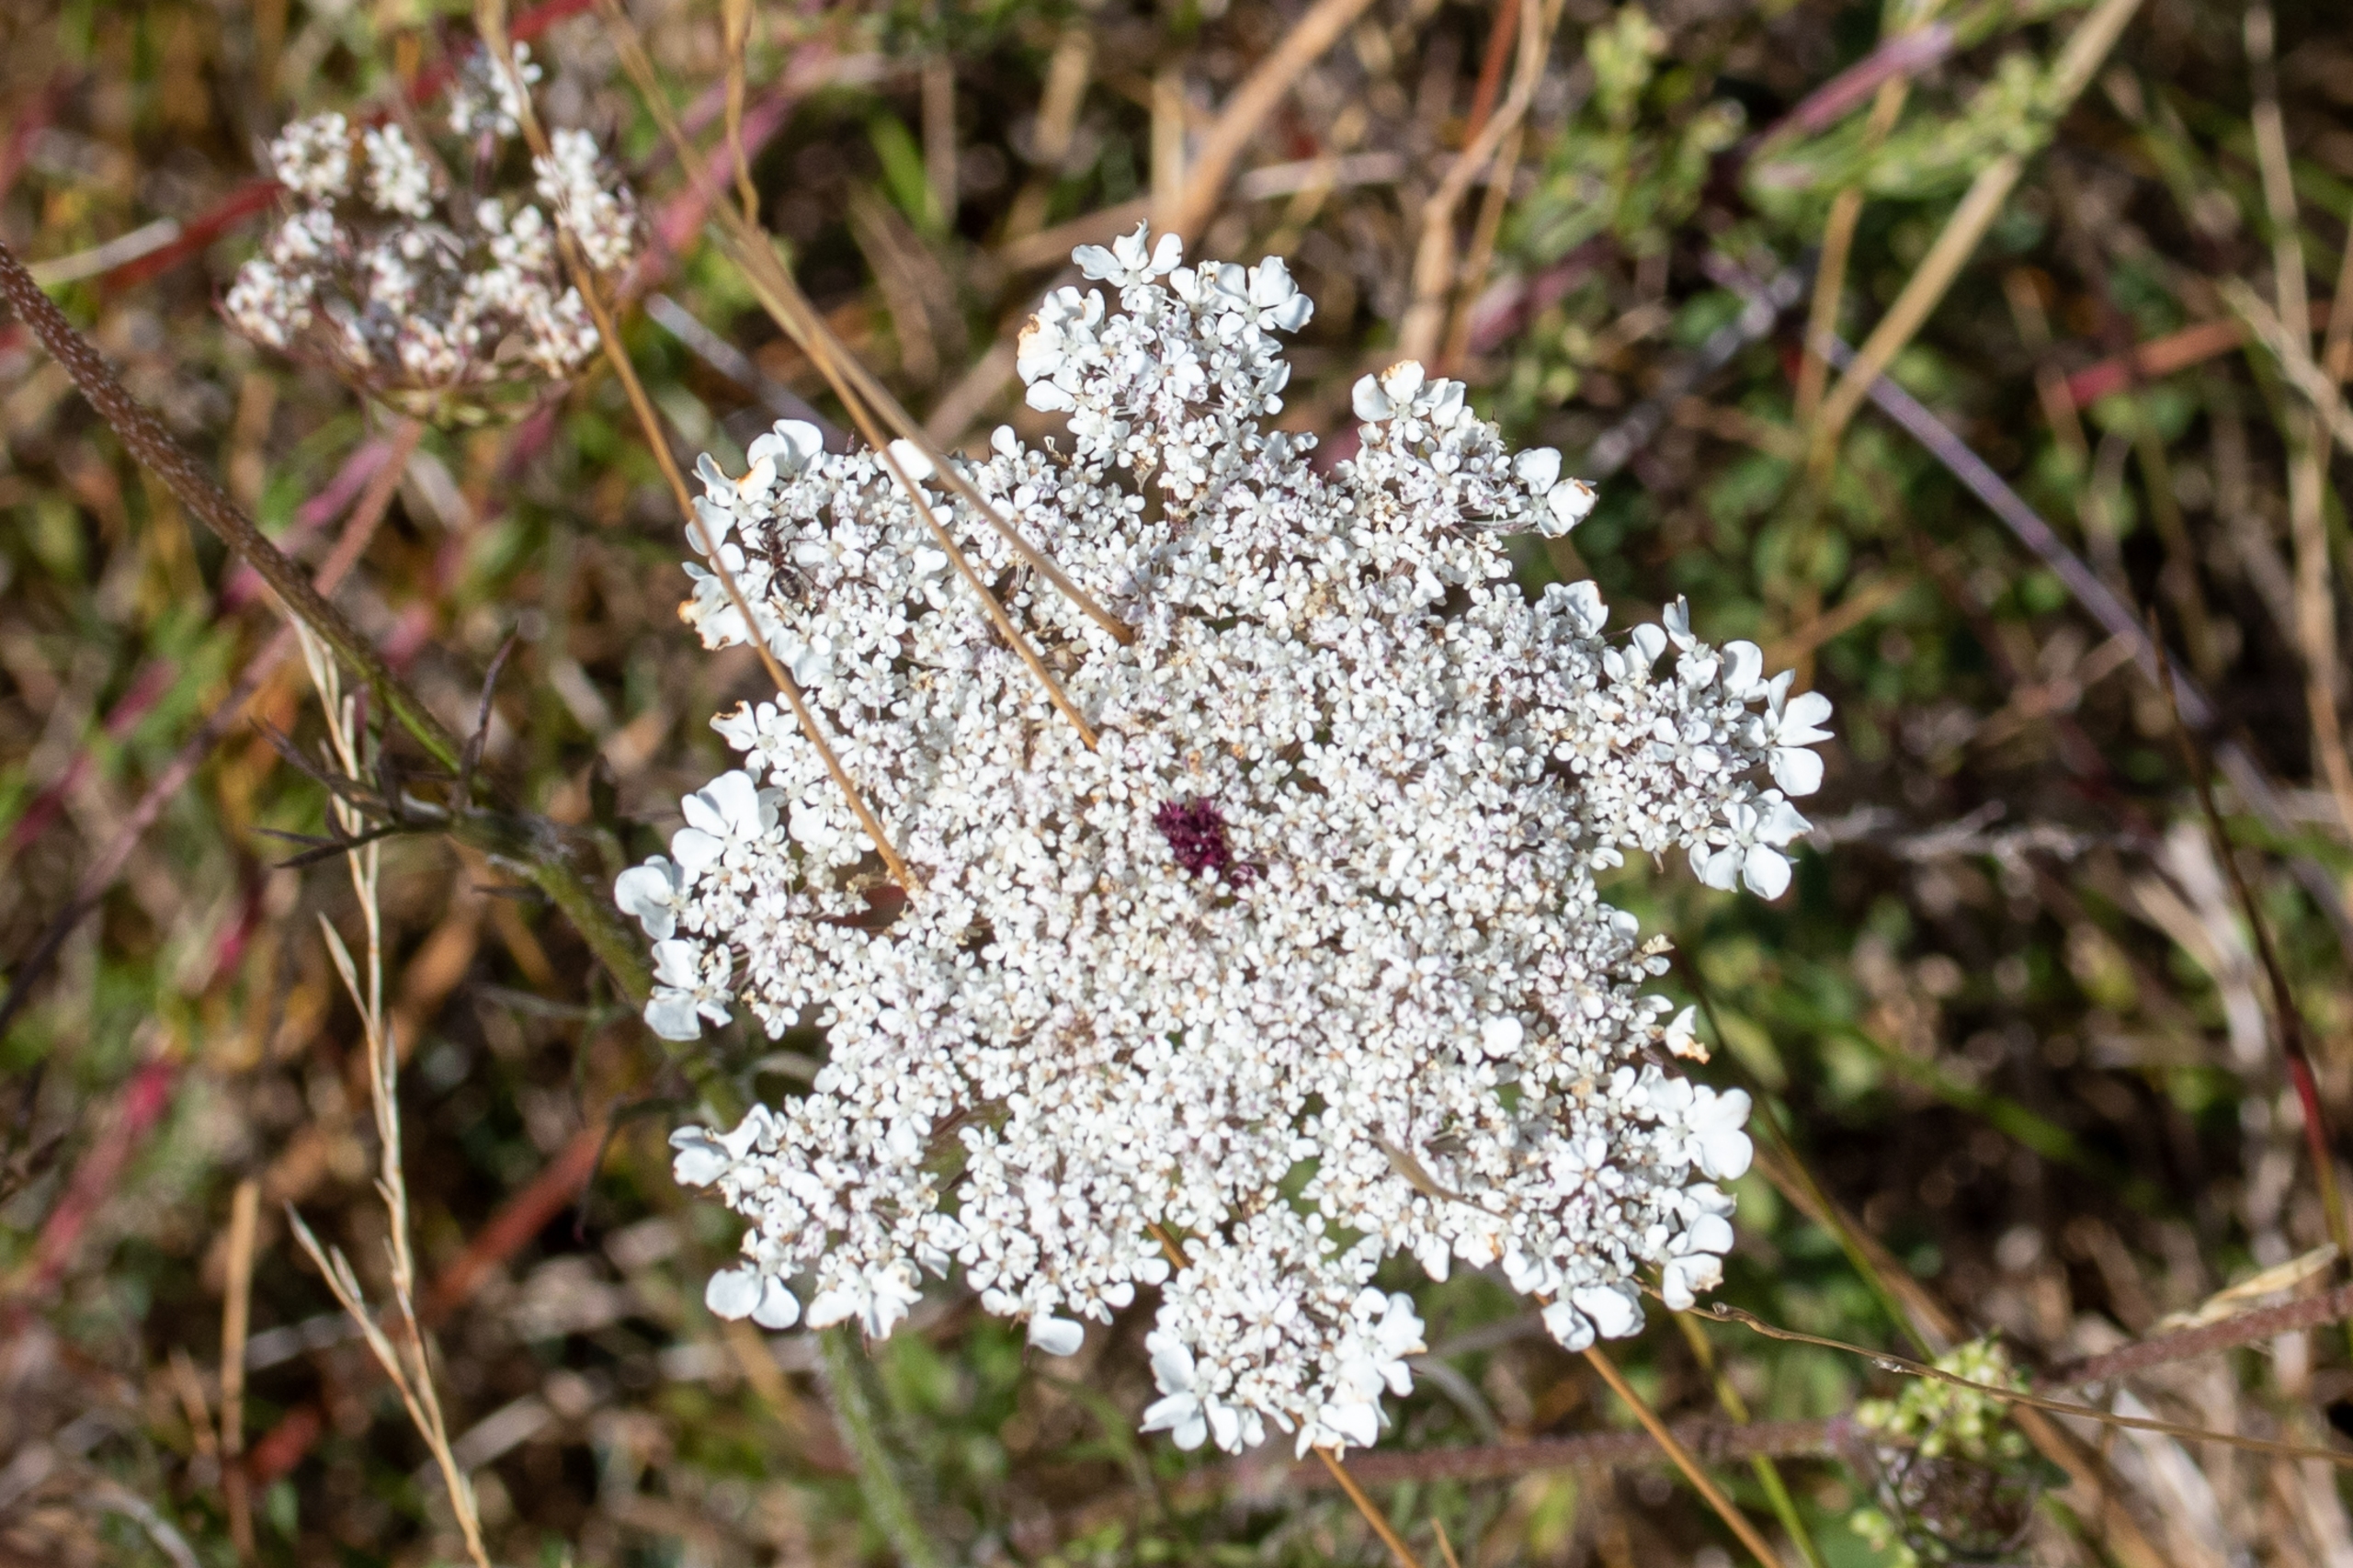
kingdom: Plantae
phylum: Tracheophyta
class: Magnoliopsida
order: Apiales
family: Apiaceae
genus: Daucus
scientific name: Daucus carota
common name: Gulerod
